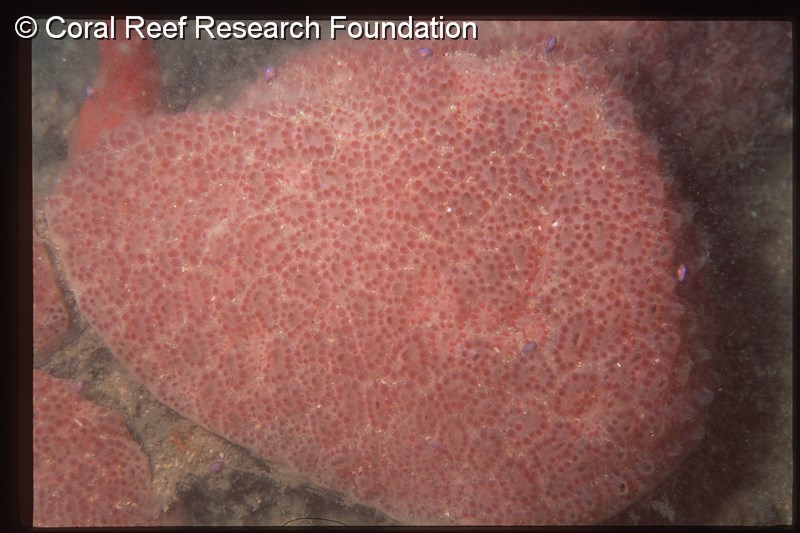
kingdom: Animalia
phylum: Chordata
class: Ascidiacea
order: Aplousobranchia
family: Polyclinidae
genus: Aplidium
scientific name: Aplidium
